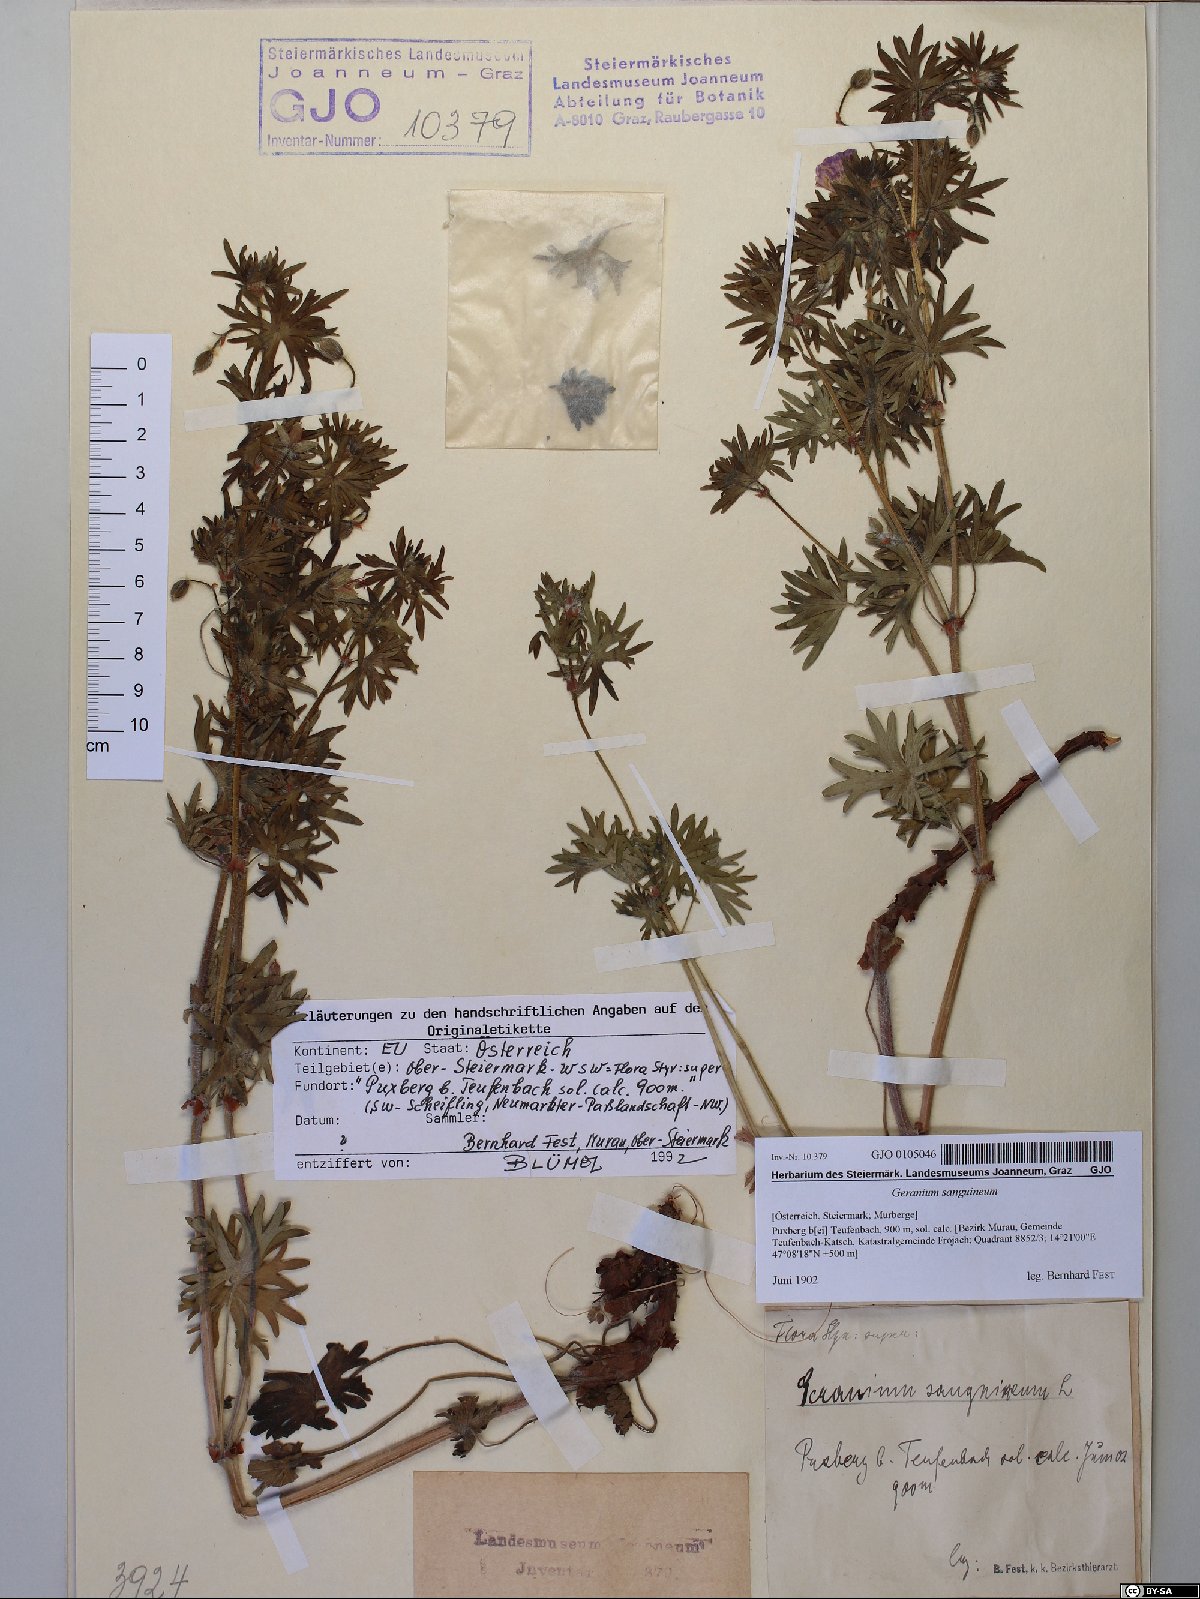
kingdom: Plantae
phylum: Tracheophyta
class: Magnoliopsida
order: Geraniales
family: Geraniaceae
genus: Geranium
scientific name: Geranium sanguineum
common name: Bloody crane's-bill
